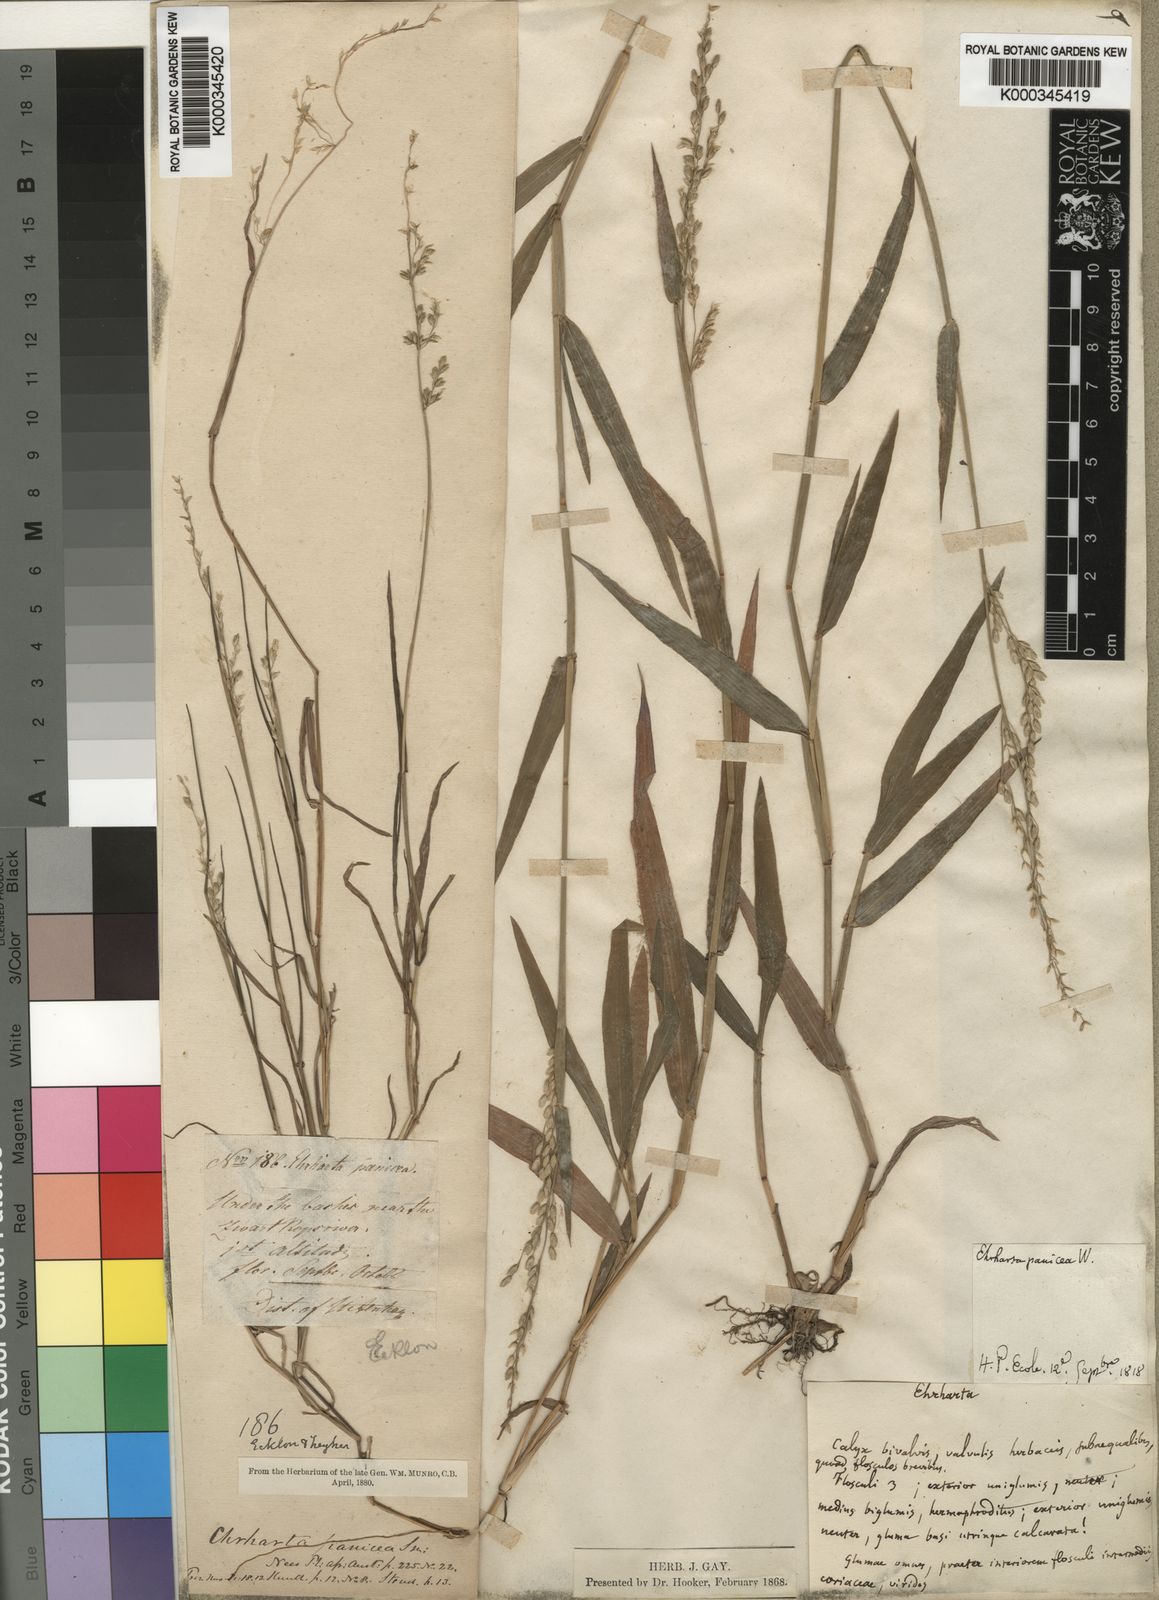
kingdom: Plantae
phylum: Tracheophyta
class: Liliopsida
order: Poales
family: Poaceae
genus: Ehrharta
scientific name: Ehrharta erecta
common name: Panic veldtgrass
